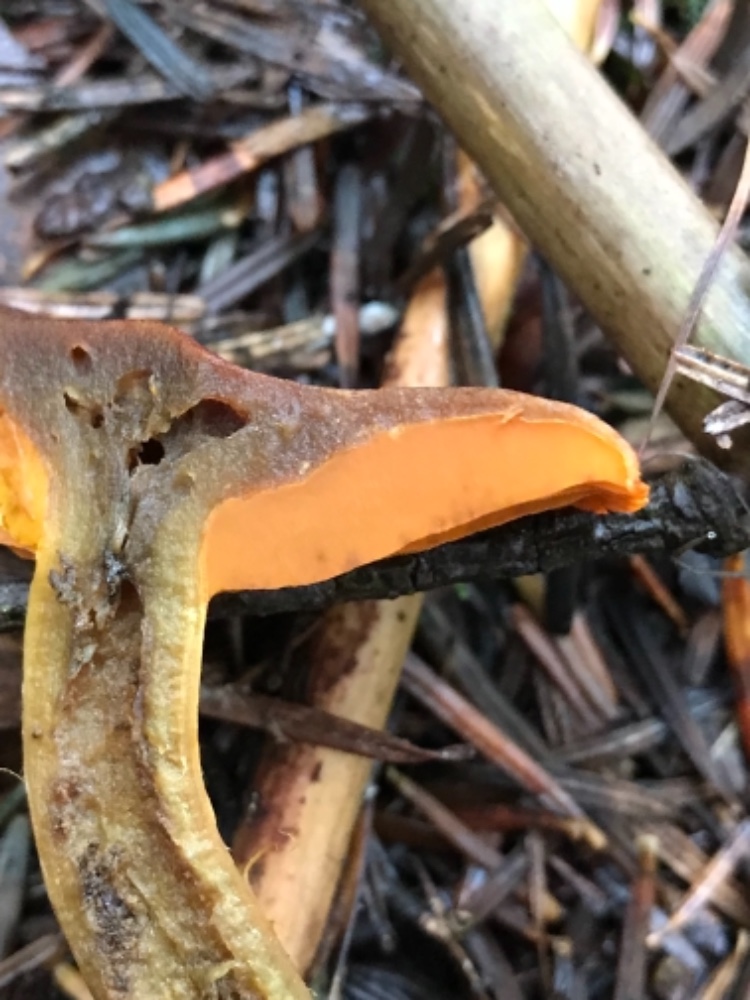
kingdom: Fungi
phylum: Basidiomycota
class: Agaricomycetes
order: Agaricales
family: Cortinariaceae
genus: Cortinarius
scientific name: Cortinarius malicorius
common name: grønkødet slørhat
